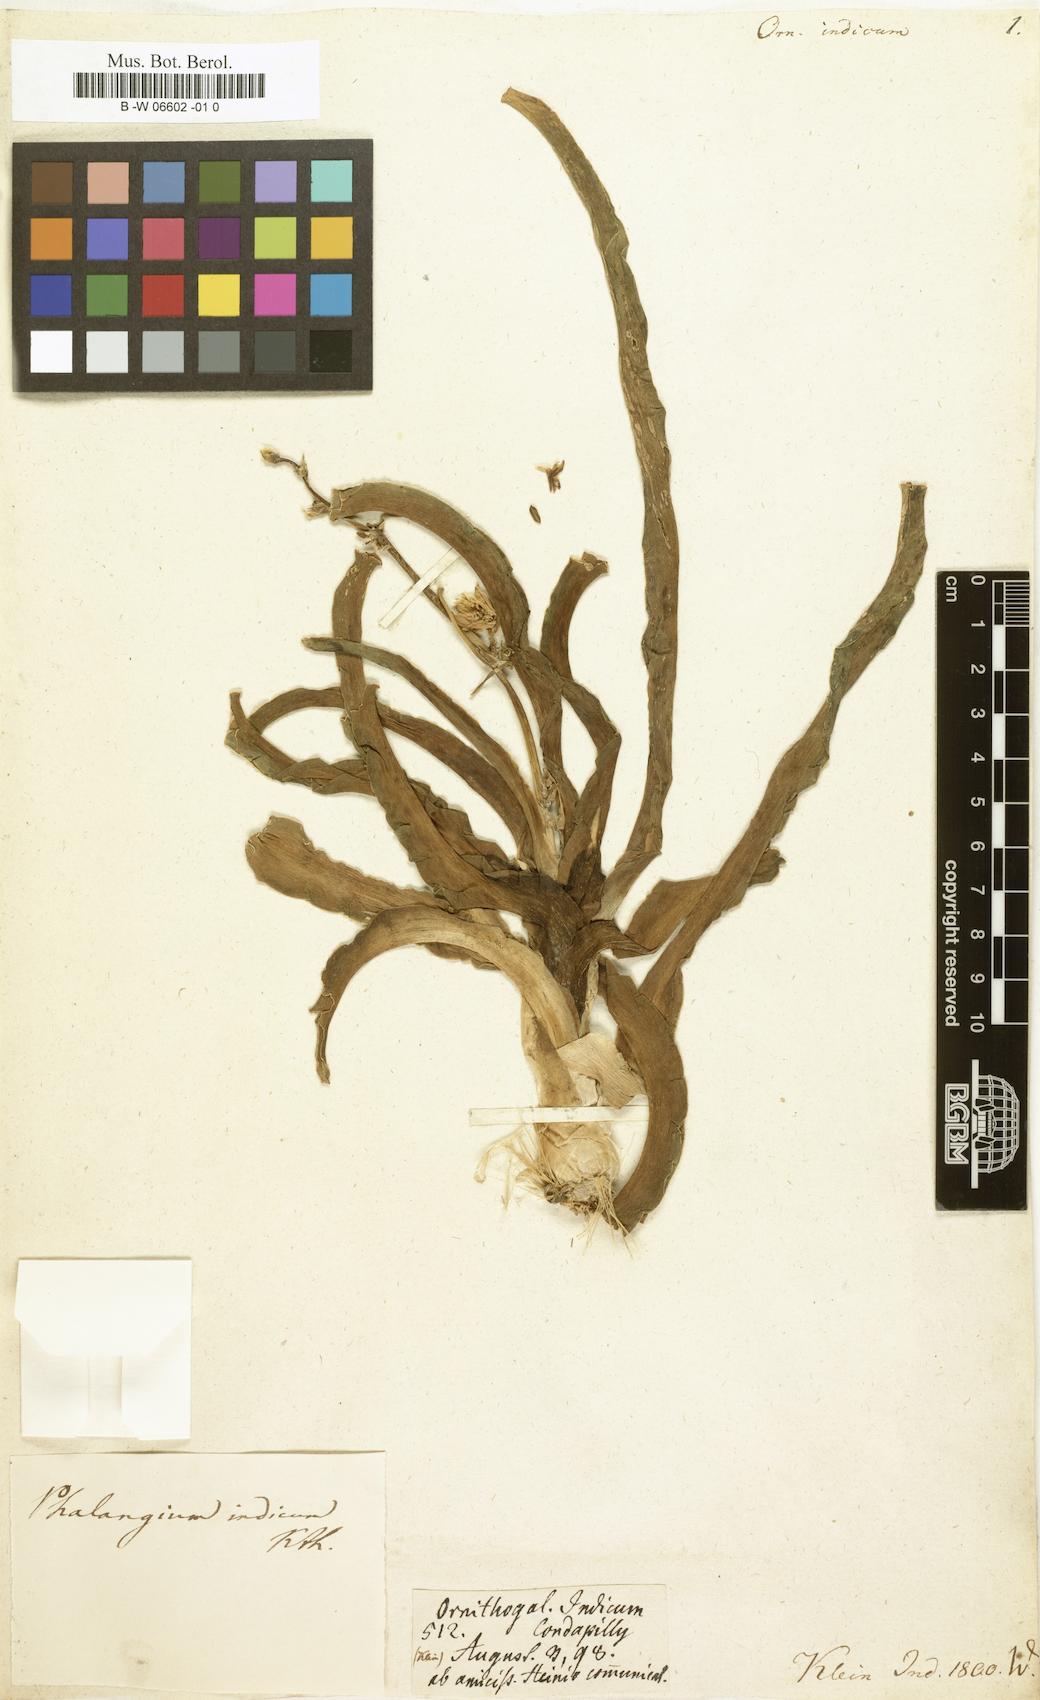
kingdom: Plantae
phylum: Tracheophyta
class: Liliopsida
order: Asparagales
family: Asparagaceae
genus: Ornithogalum
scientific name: Ornithogalum indicum
